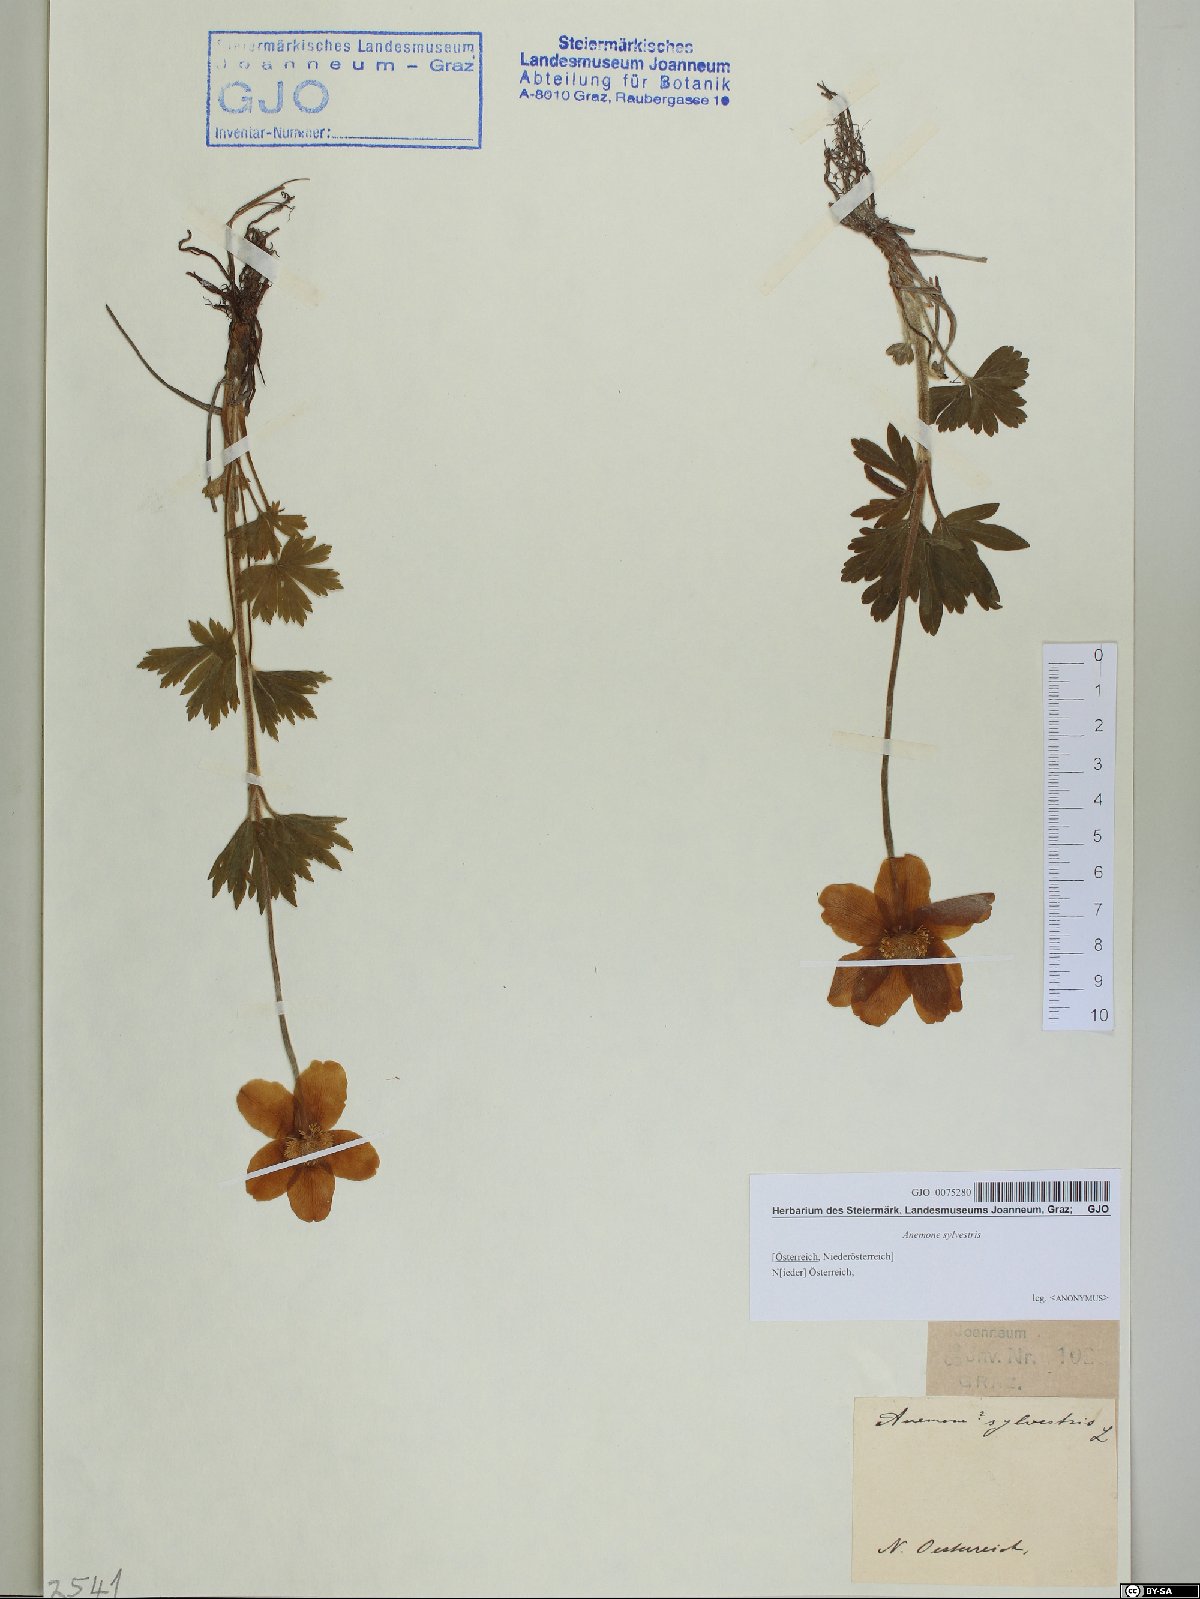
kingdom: Plantae
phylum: Tracheophyta
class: Magnoliopsida
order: Ranunculales
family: Ranunculaceae
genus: Anemone
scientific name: Anemone sylvestris
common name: Snowdrop anemone
